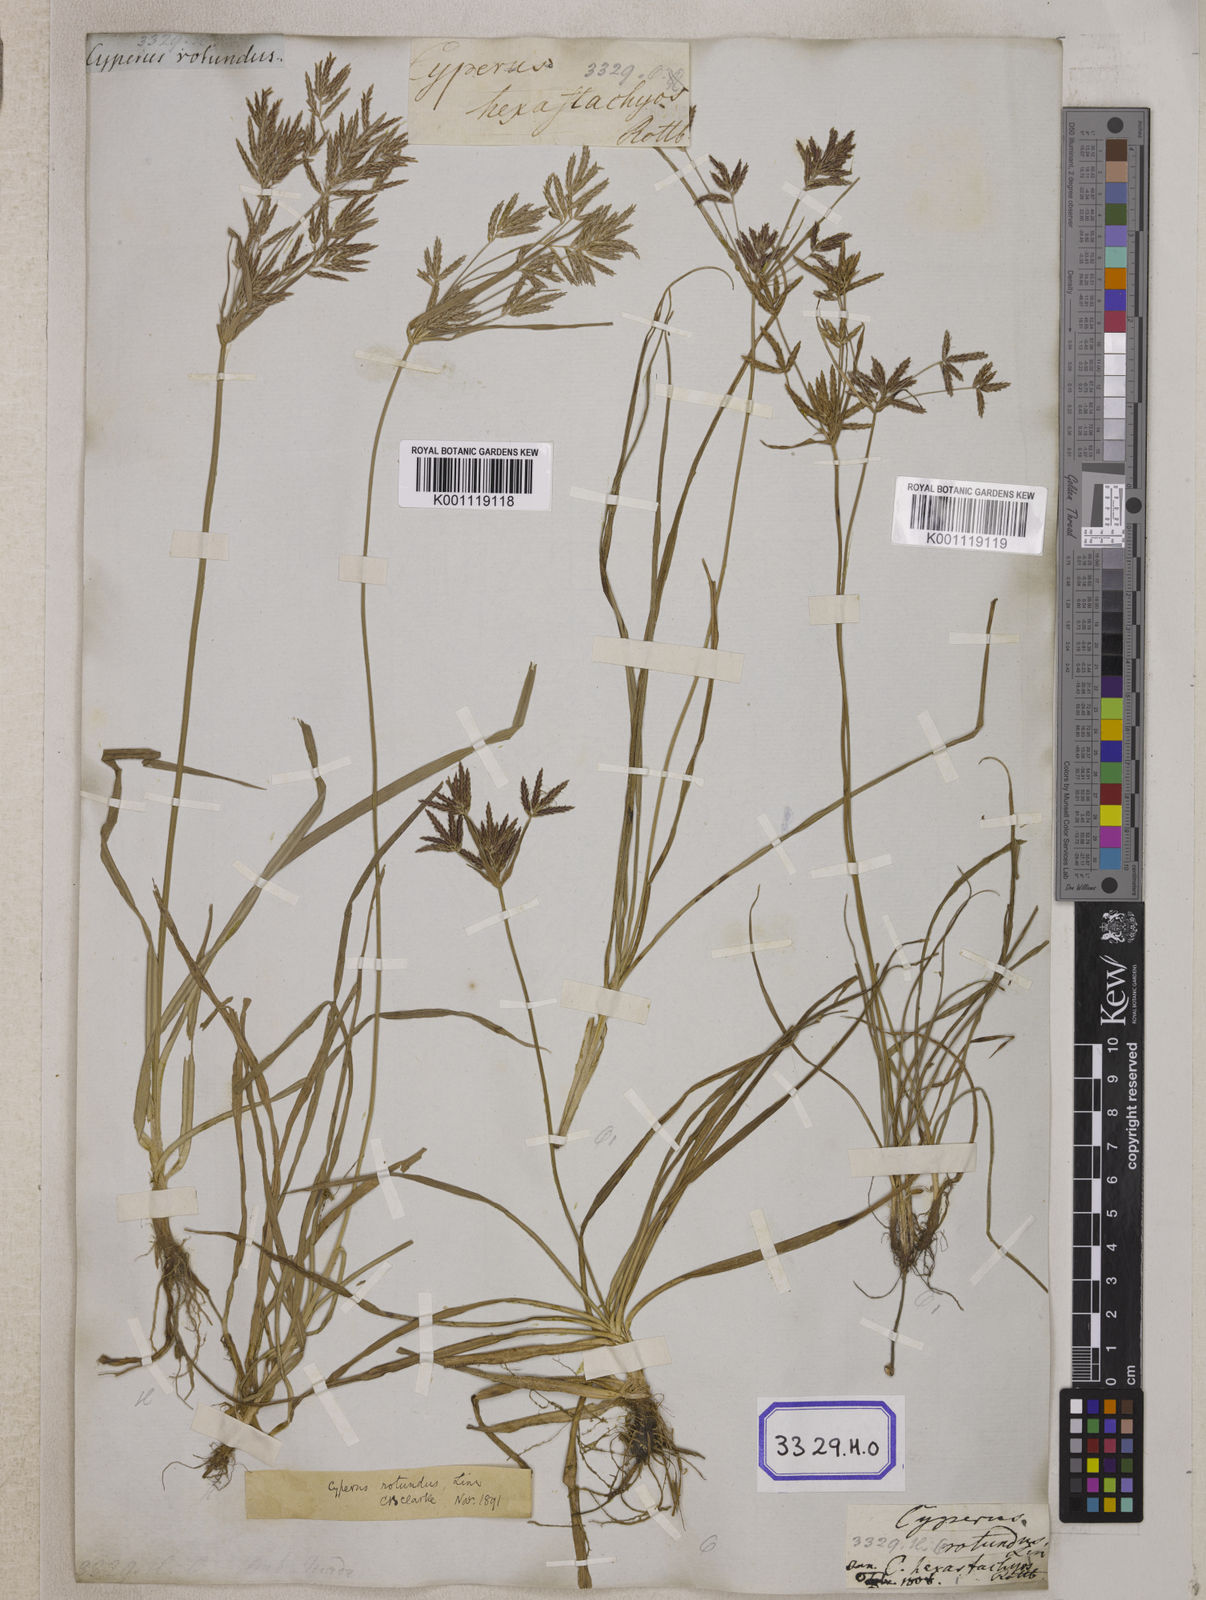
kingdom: Plantae
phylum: Tracheophyta
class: Liliopsida
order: Poales
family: Cyperaceae
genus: Cyperus
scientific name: Cyperus
